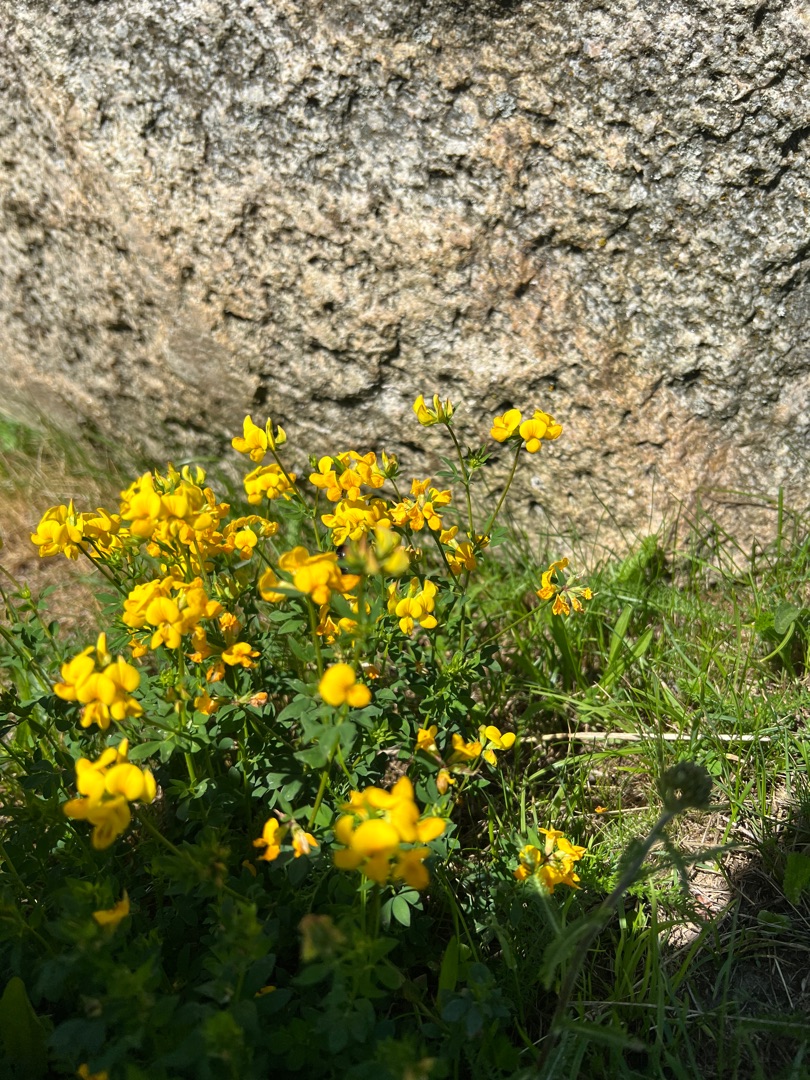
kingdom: Plantae
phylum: Tracheophyta
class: Magnoliopsida
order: Fabales
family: Fabaceae
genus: Lotus
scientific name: Lotus corniculatus
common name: Almindelig kællingetand
